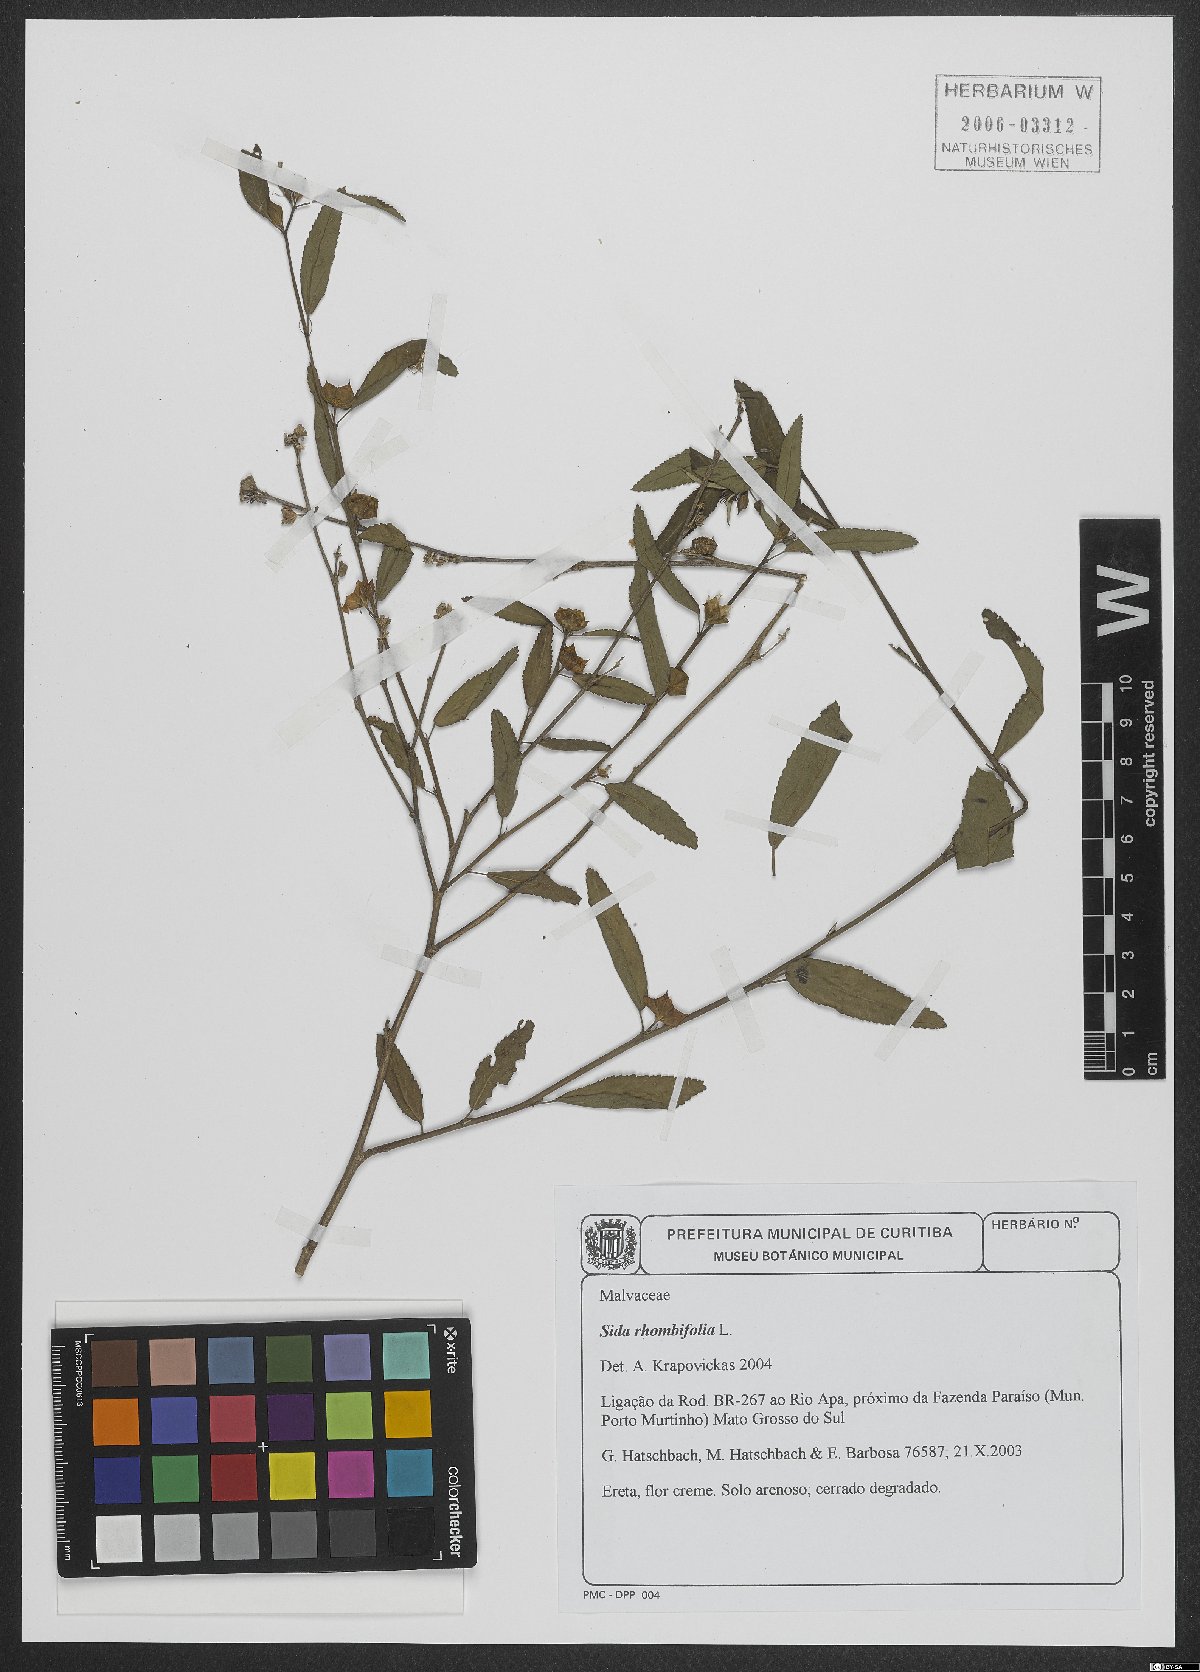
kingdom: Plantae
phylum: Tracheophyta
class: Magnoliopsida
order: Malvales
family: Malvaceae
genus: Sida
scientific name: Sida rhombifolia
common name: Queensland-hemp
